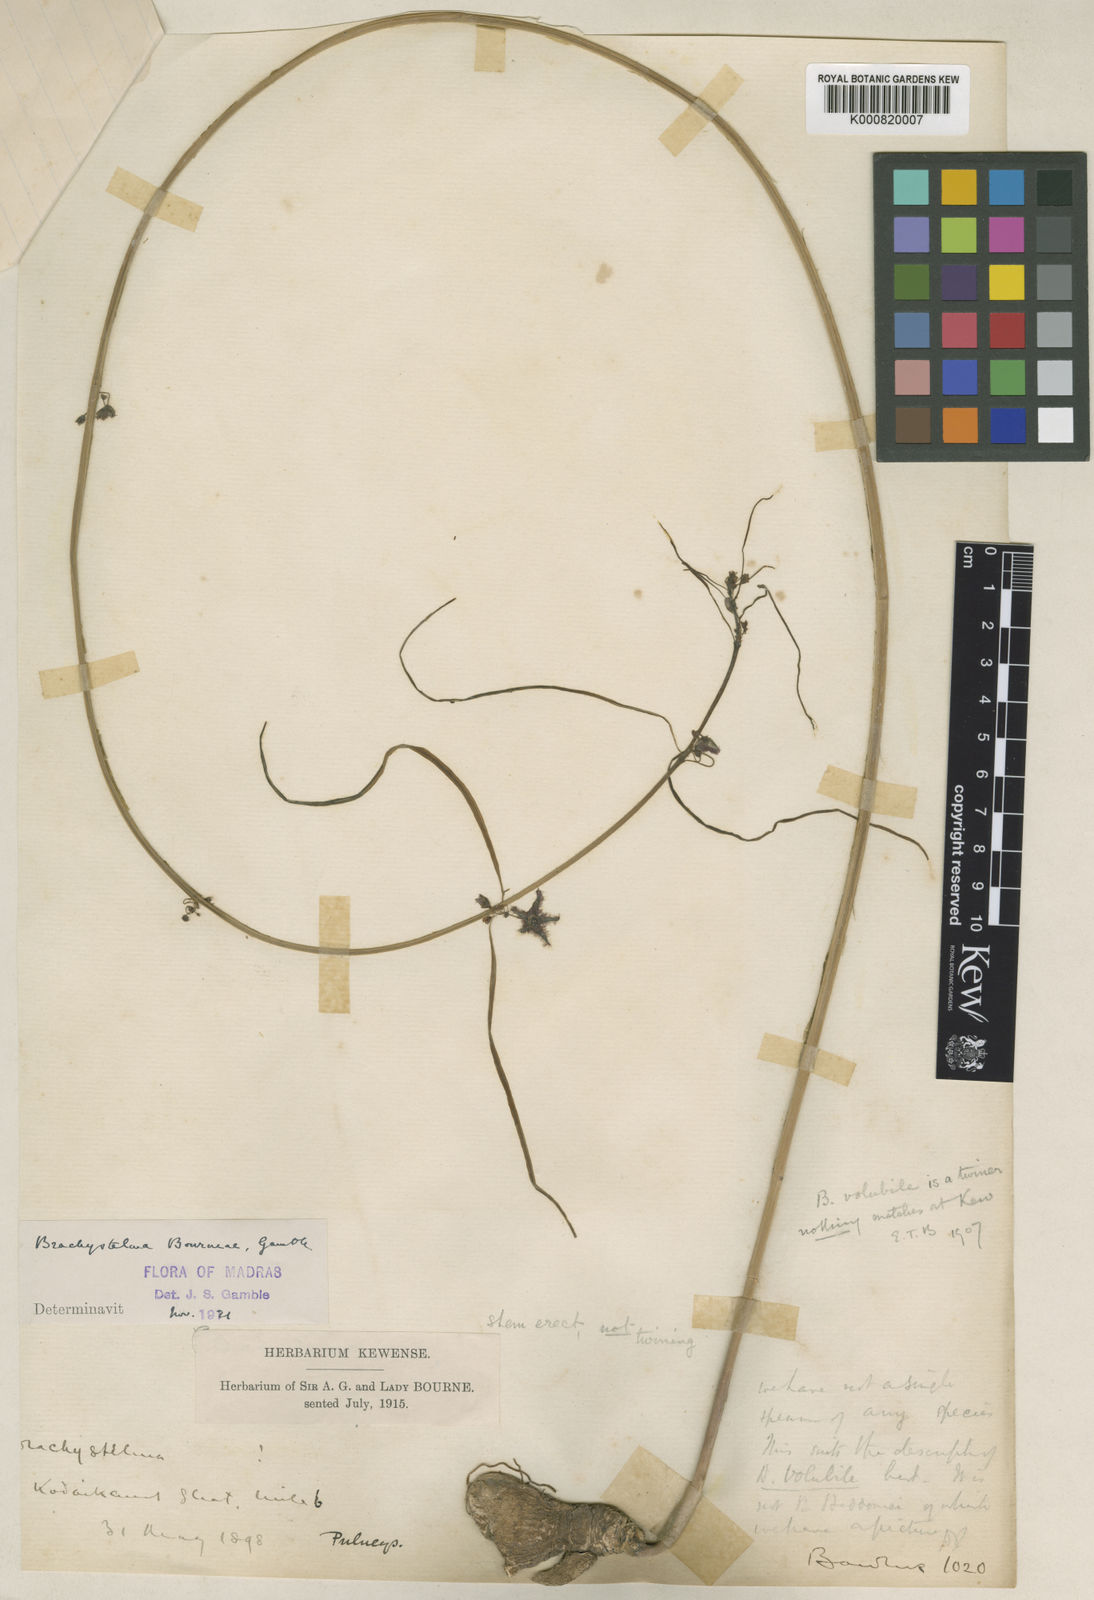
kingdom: Plantae
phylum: Tracheophyta
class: Magnoliopsida
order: Gentianales
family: Apocynaceae
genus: Ceropegia
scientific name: Ceropegia bourneae
